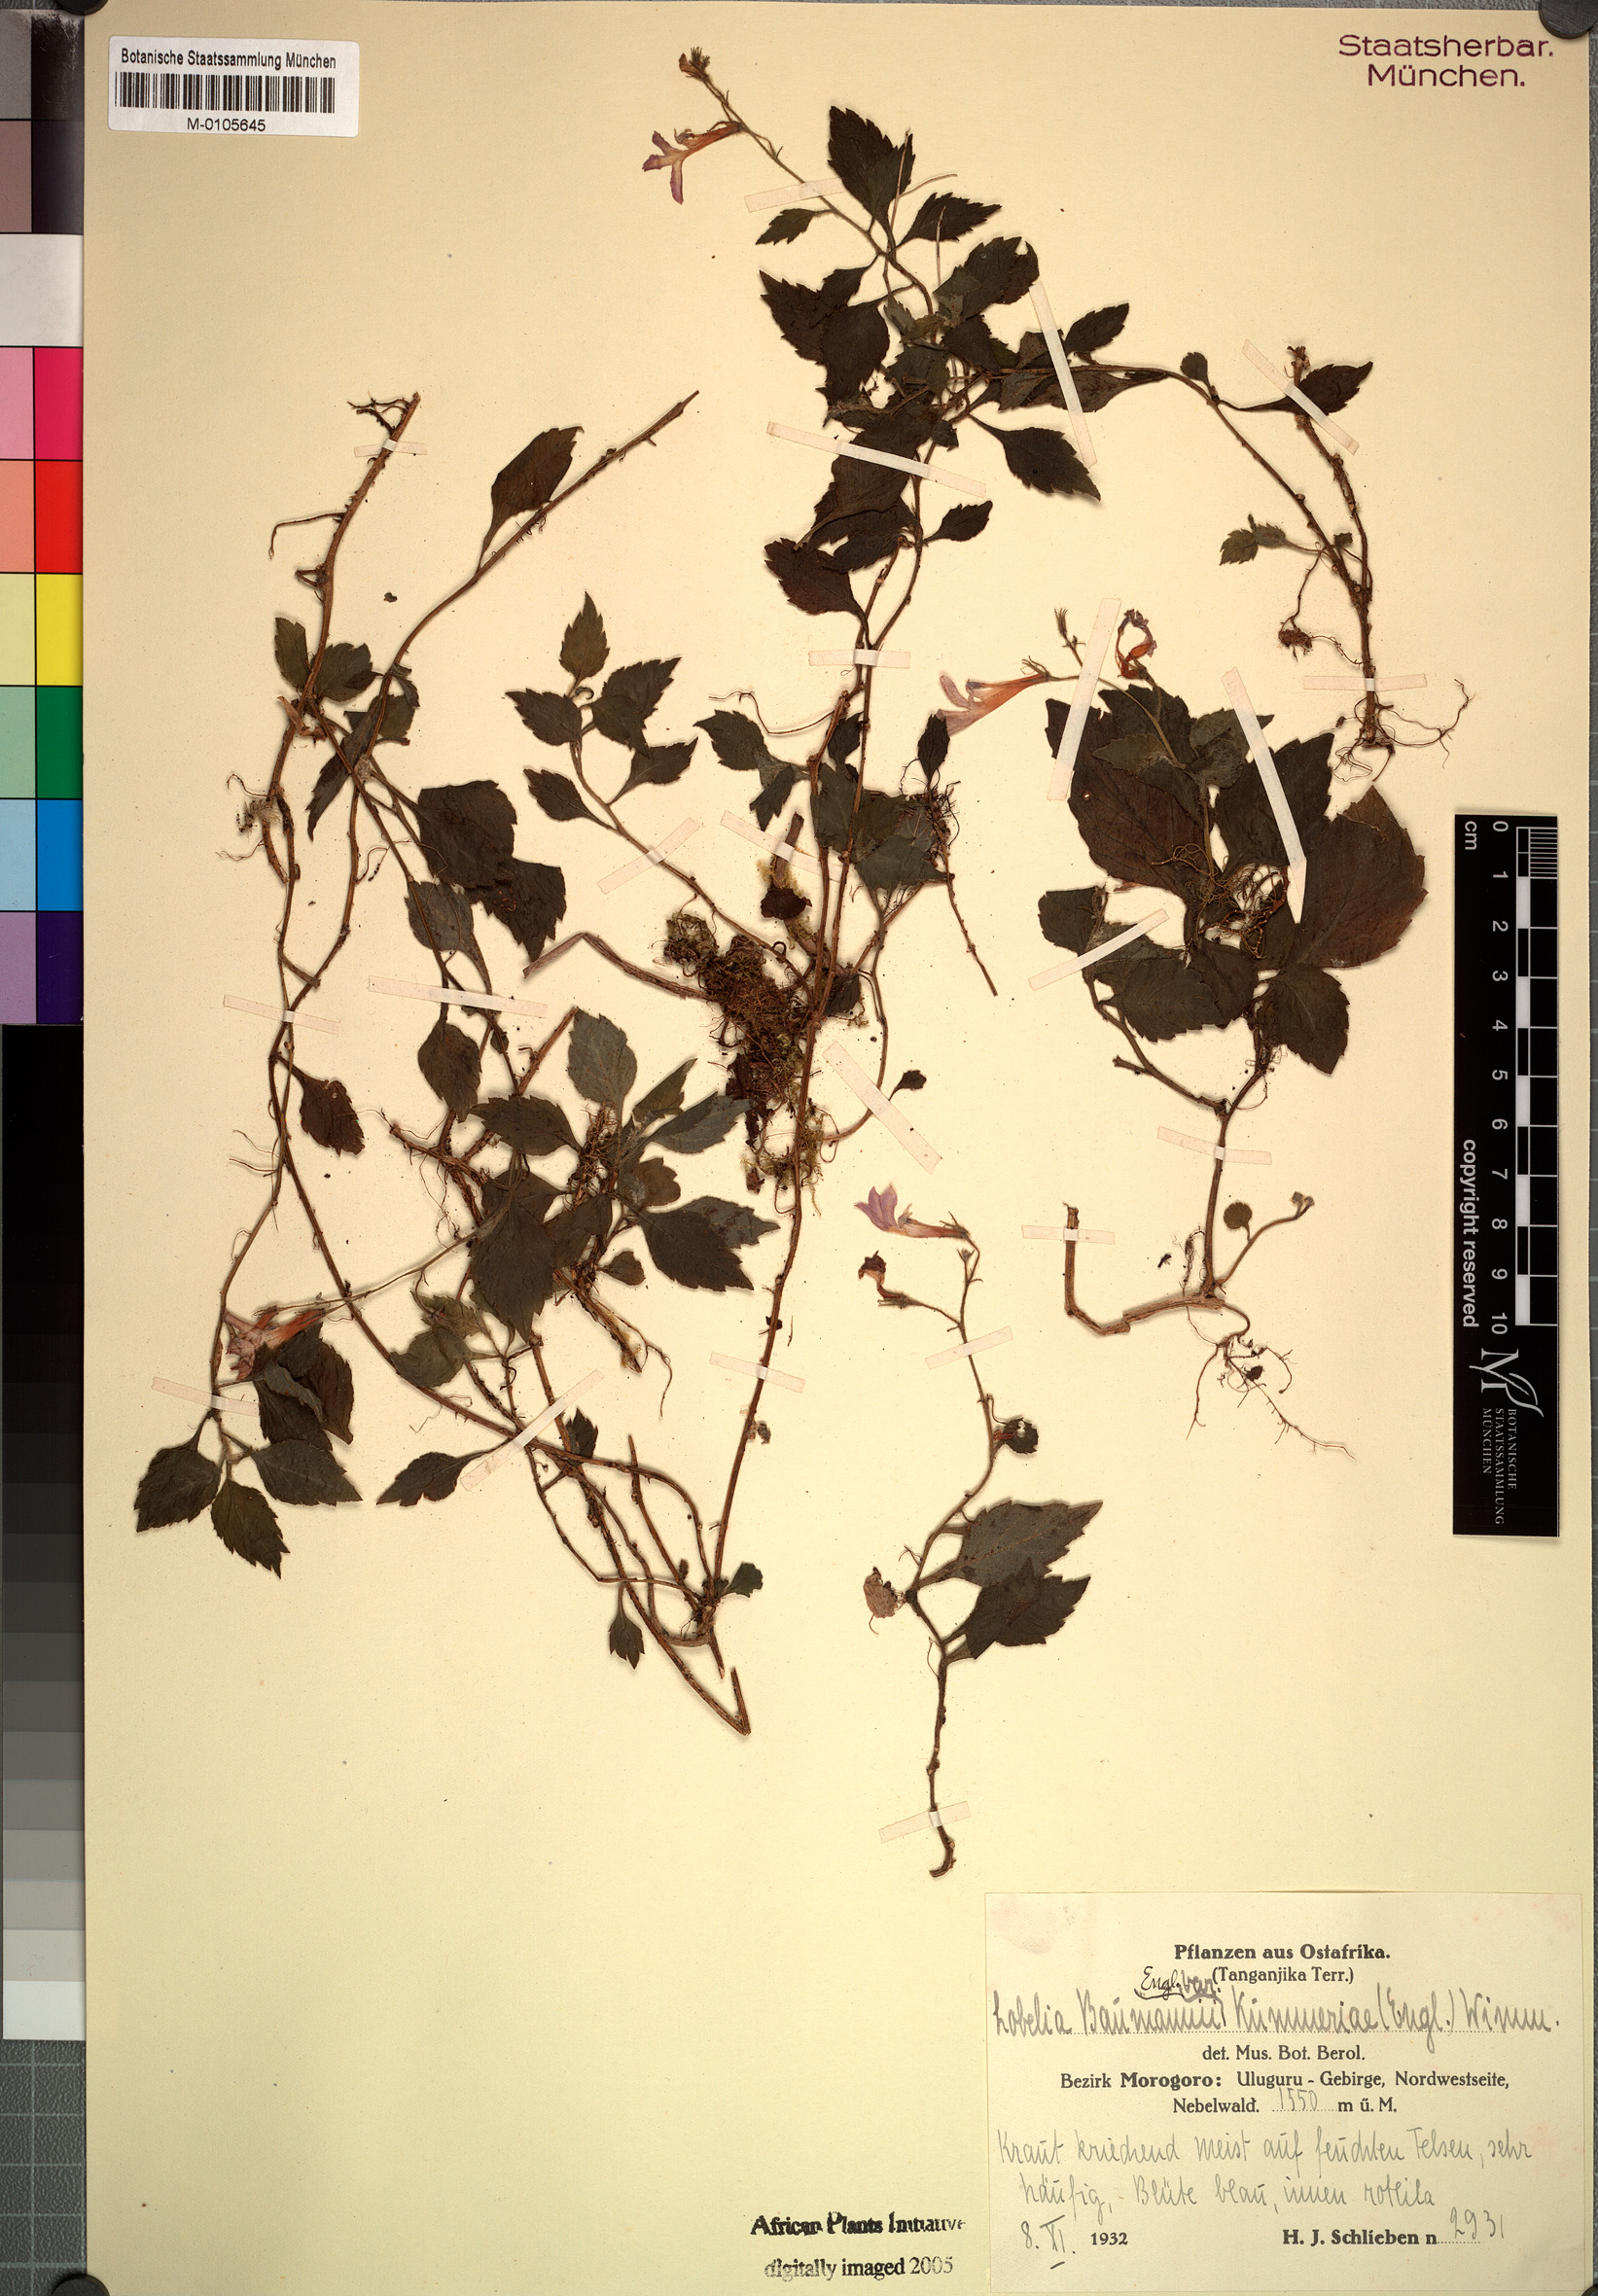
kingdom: Plantae
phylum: Tracheophyta
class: Magnoliopsida
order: Asterales
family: Campanulaceae
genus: Lobelia
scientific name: Lobelia baumannii
